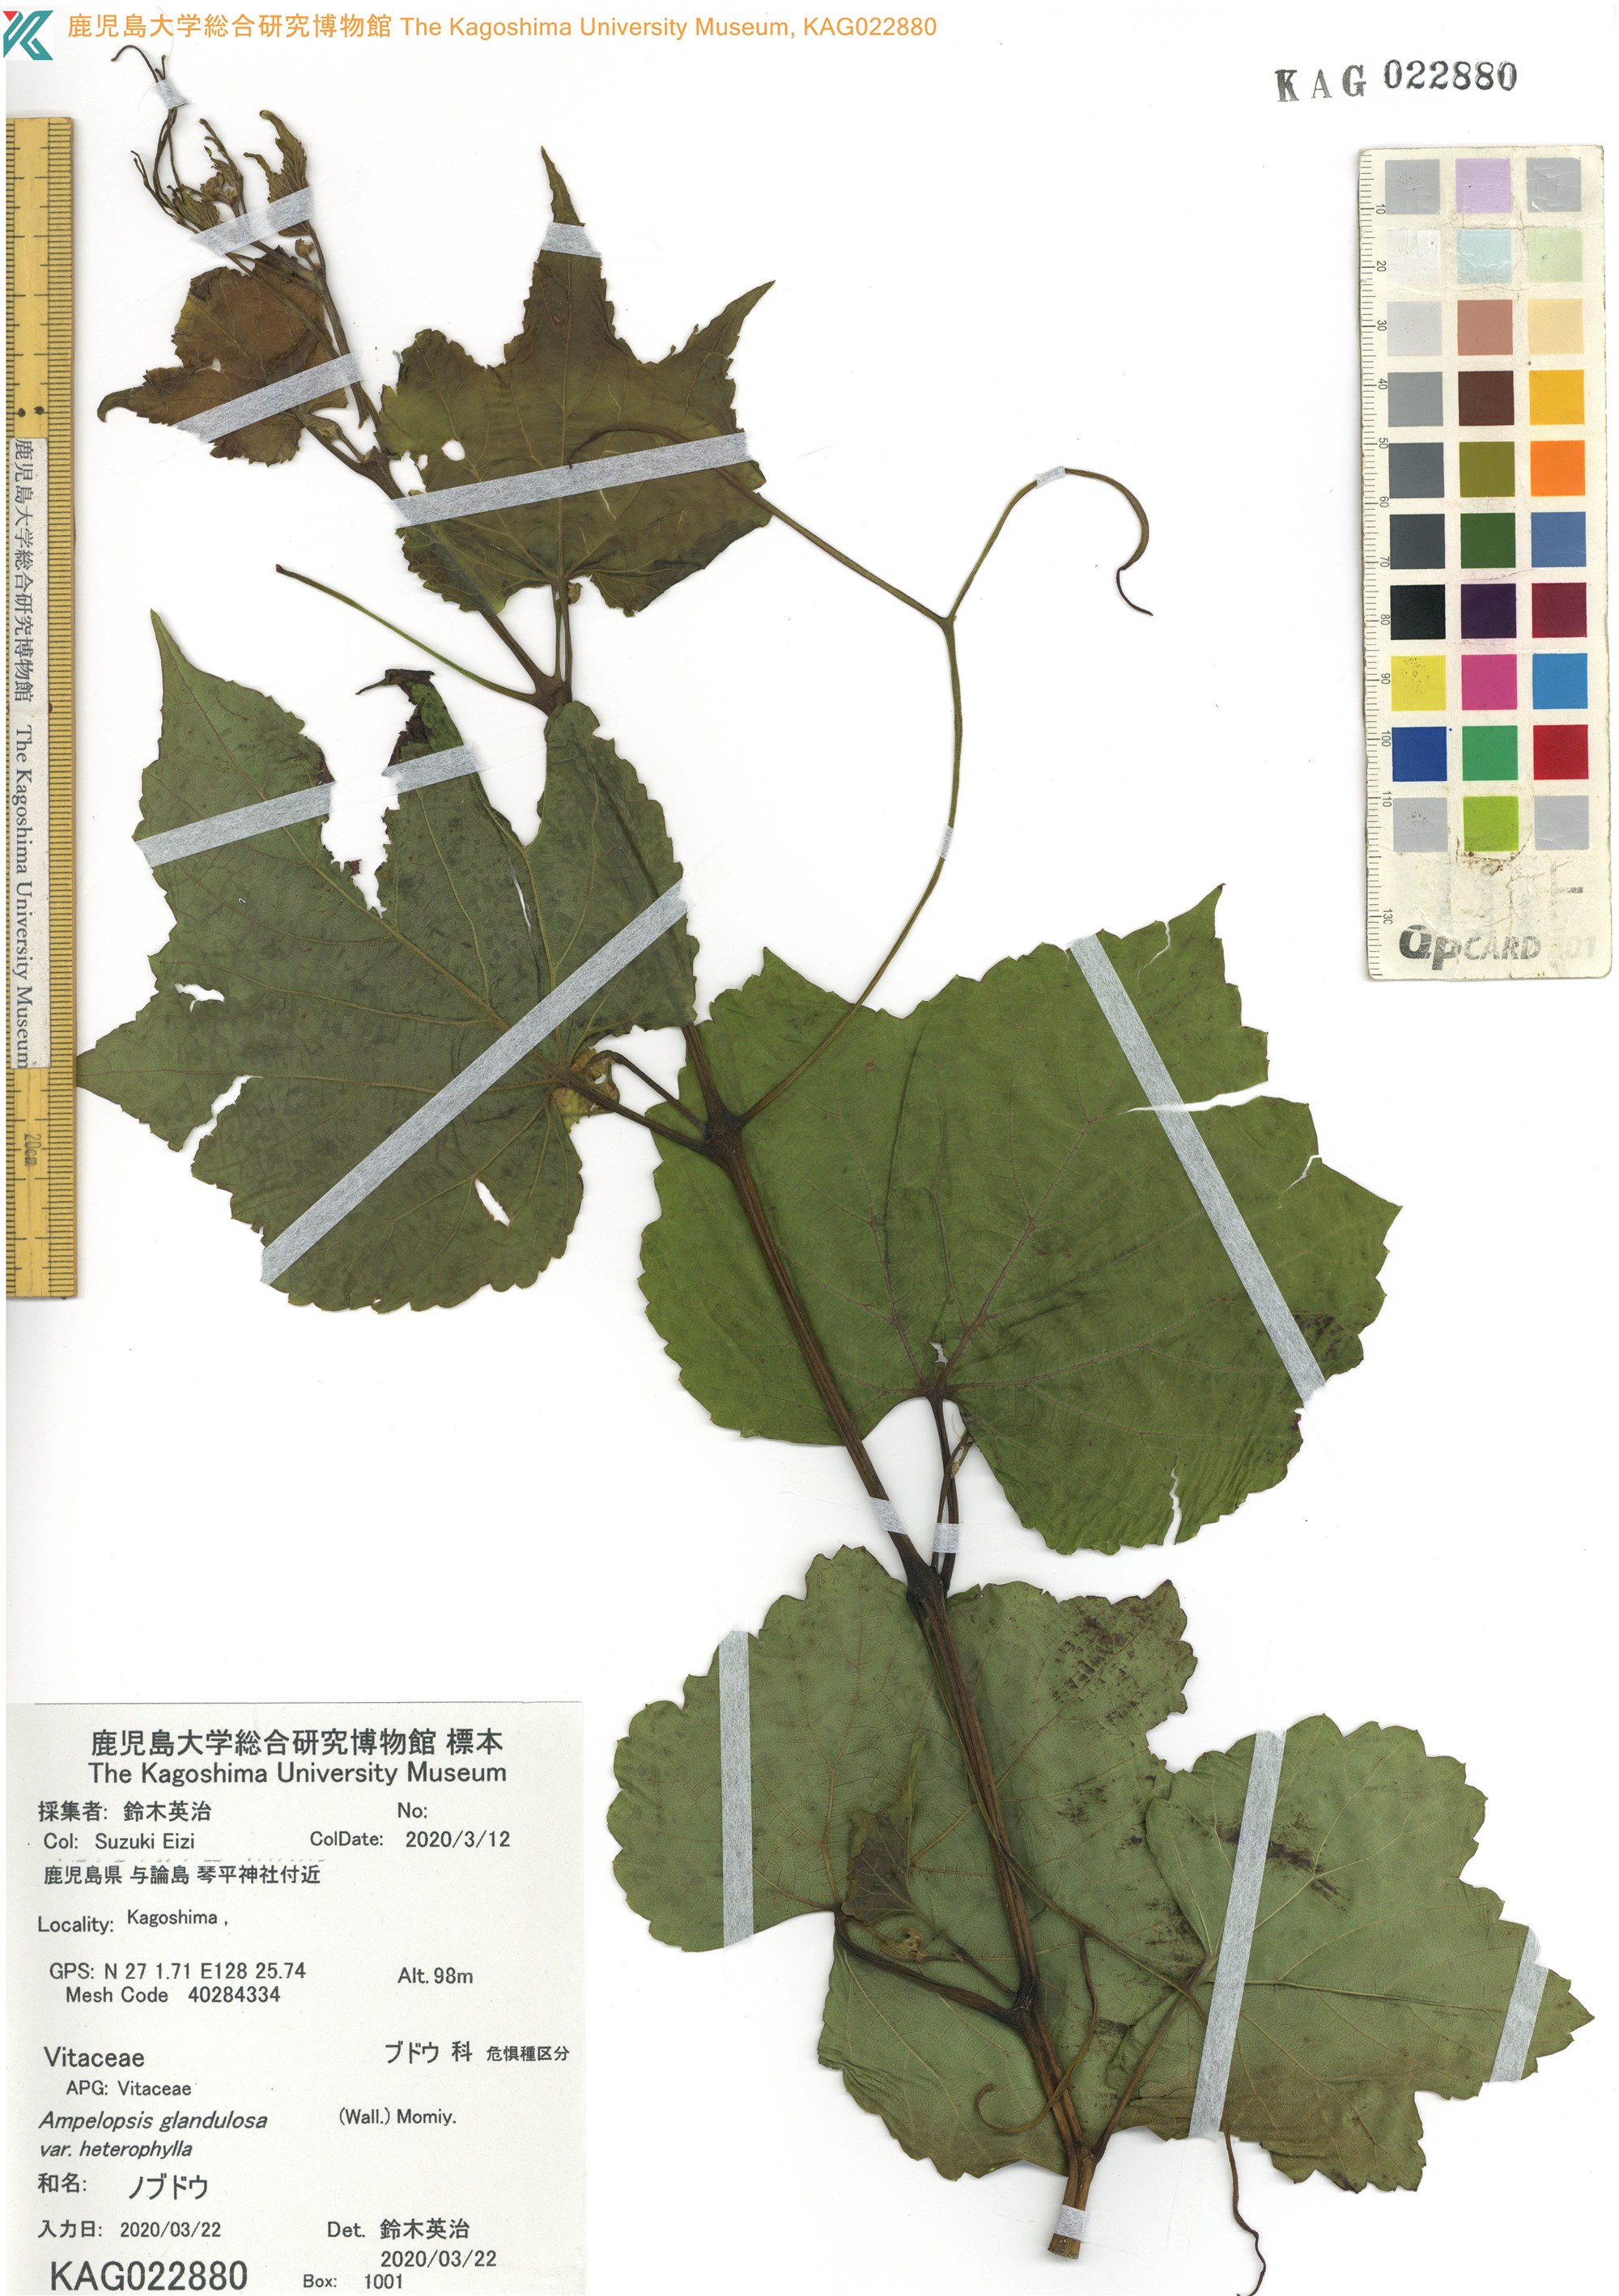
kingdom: Plantae
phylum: Tracheophyta
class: Magnoliopsida
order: Vitales
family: Vitaceae
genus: Ampelopsis
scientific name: Ampelopsis glandulosa
